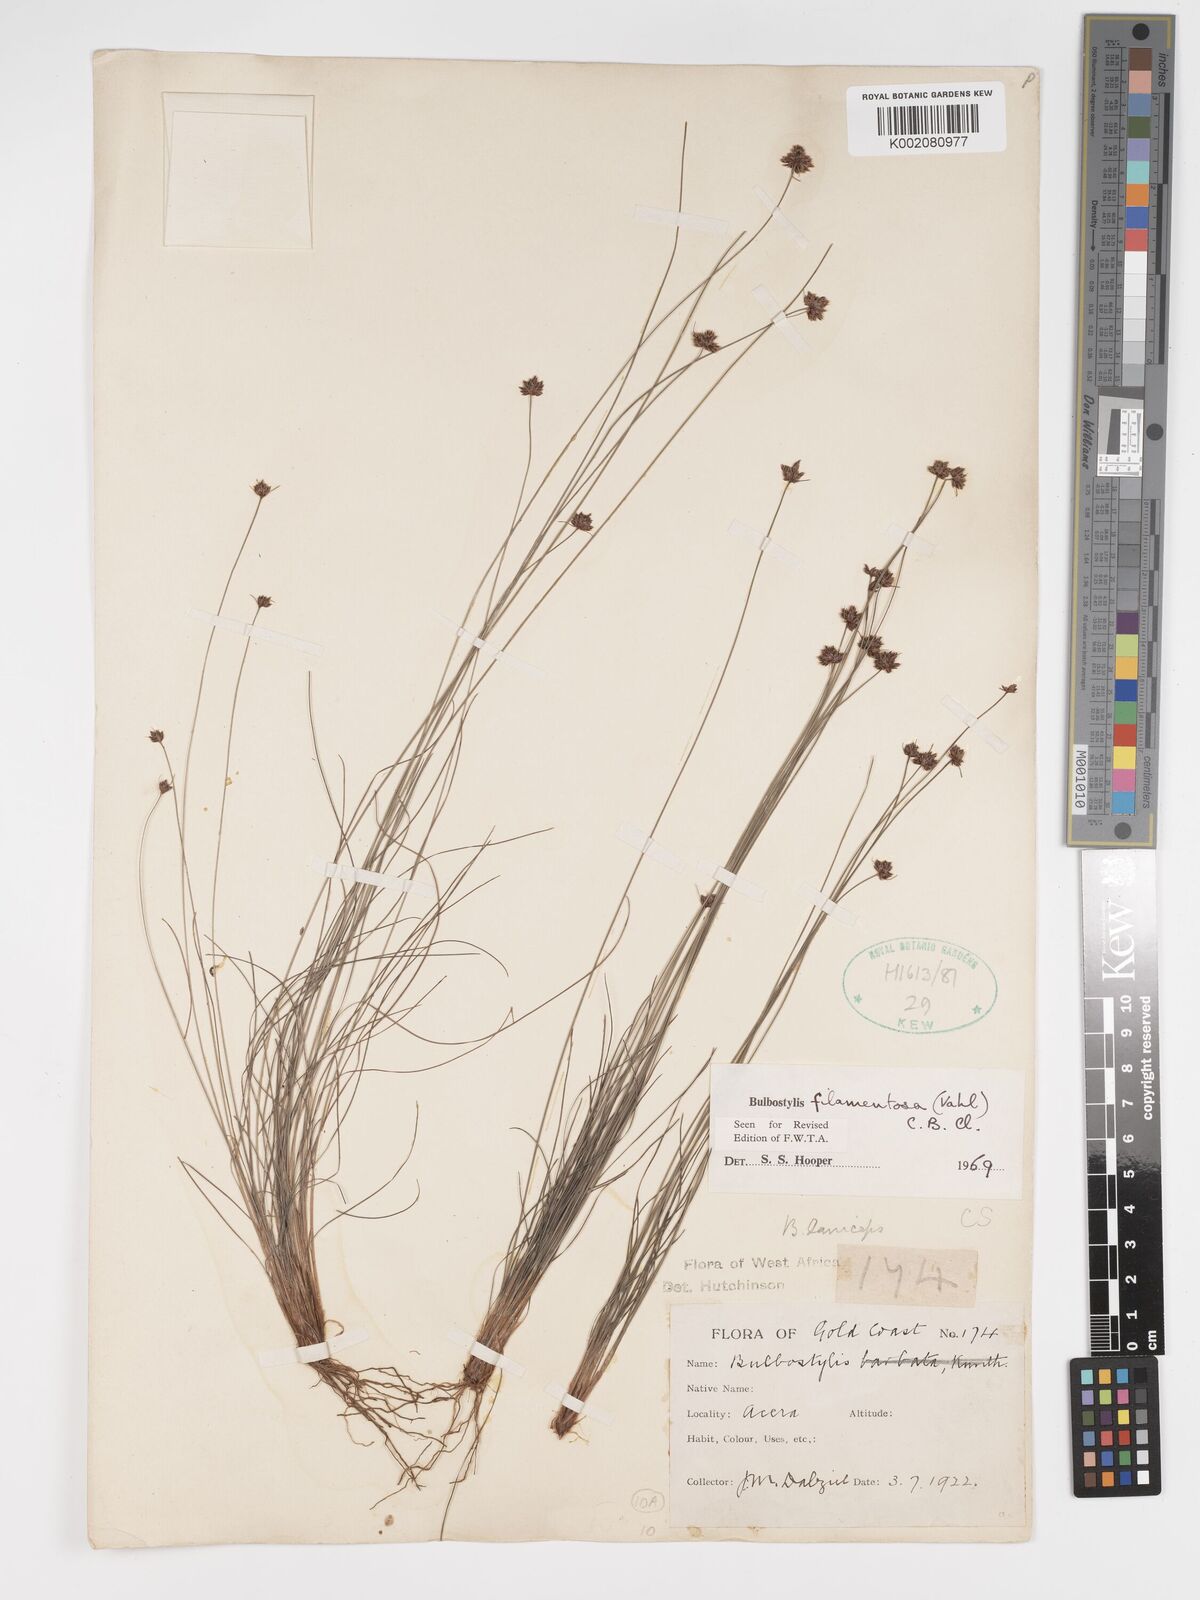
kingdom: Plantae
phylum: Tracheophyta
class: Liliopsida
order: Poales
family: Cyperaceae
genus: Bulbostylis
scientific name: Bulbostylis filamentosa
